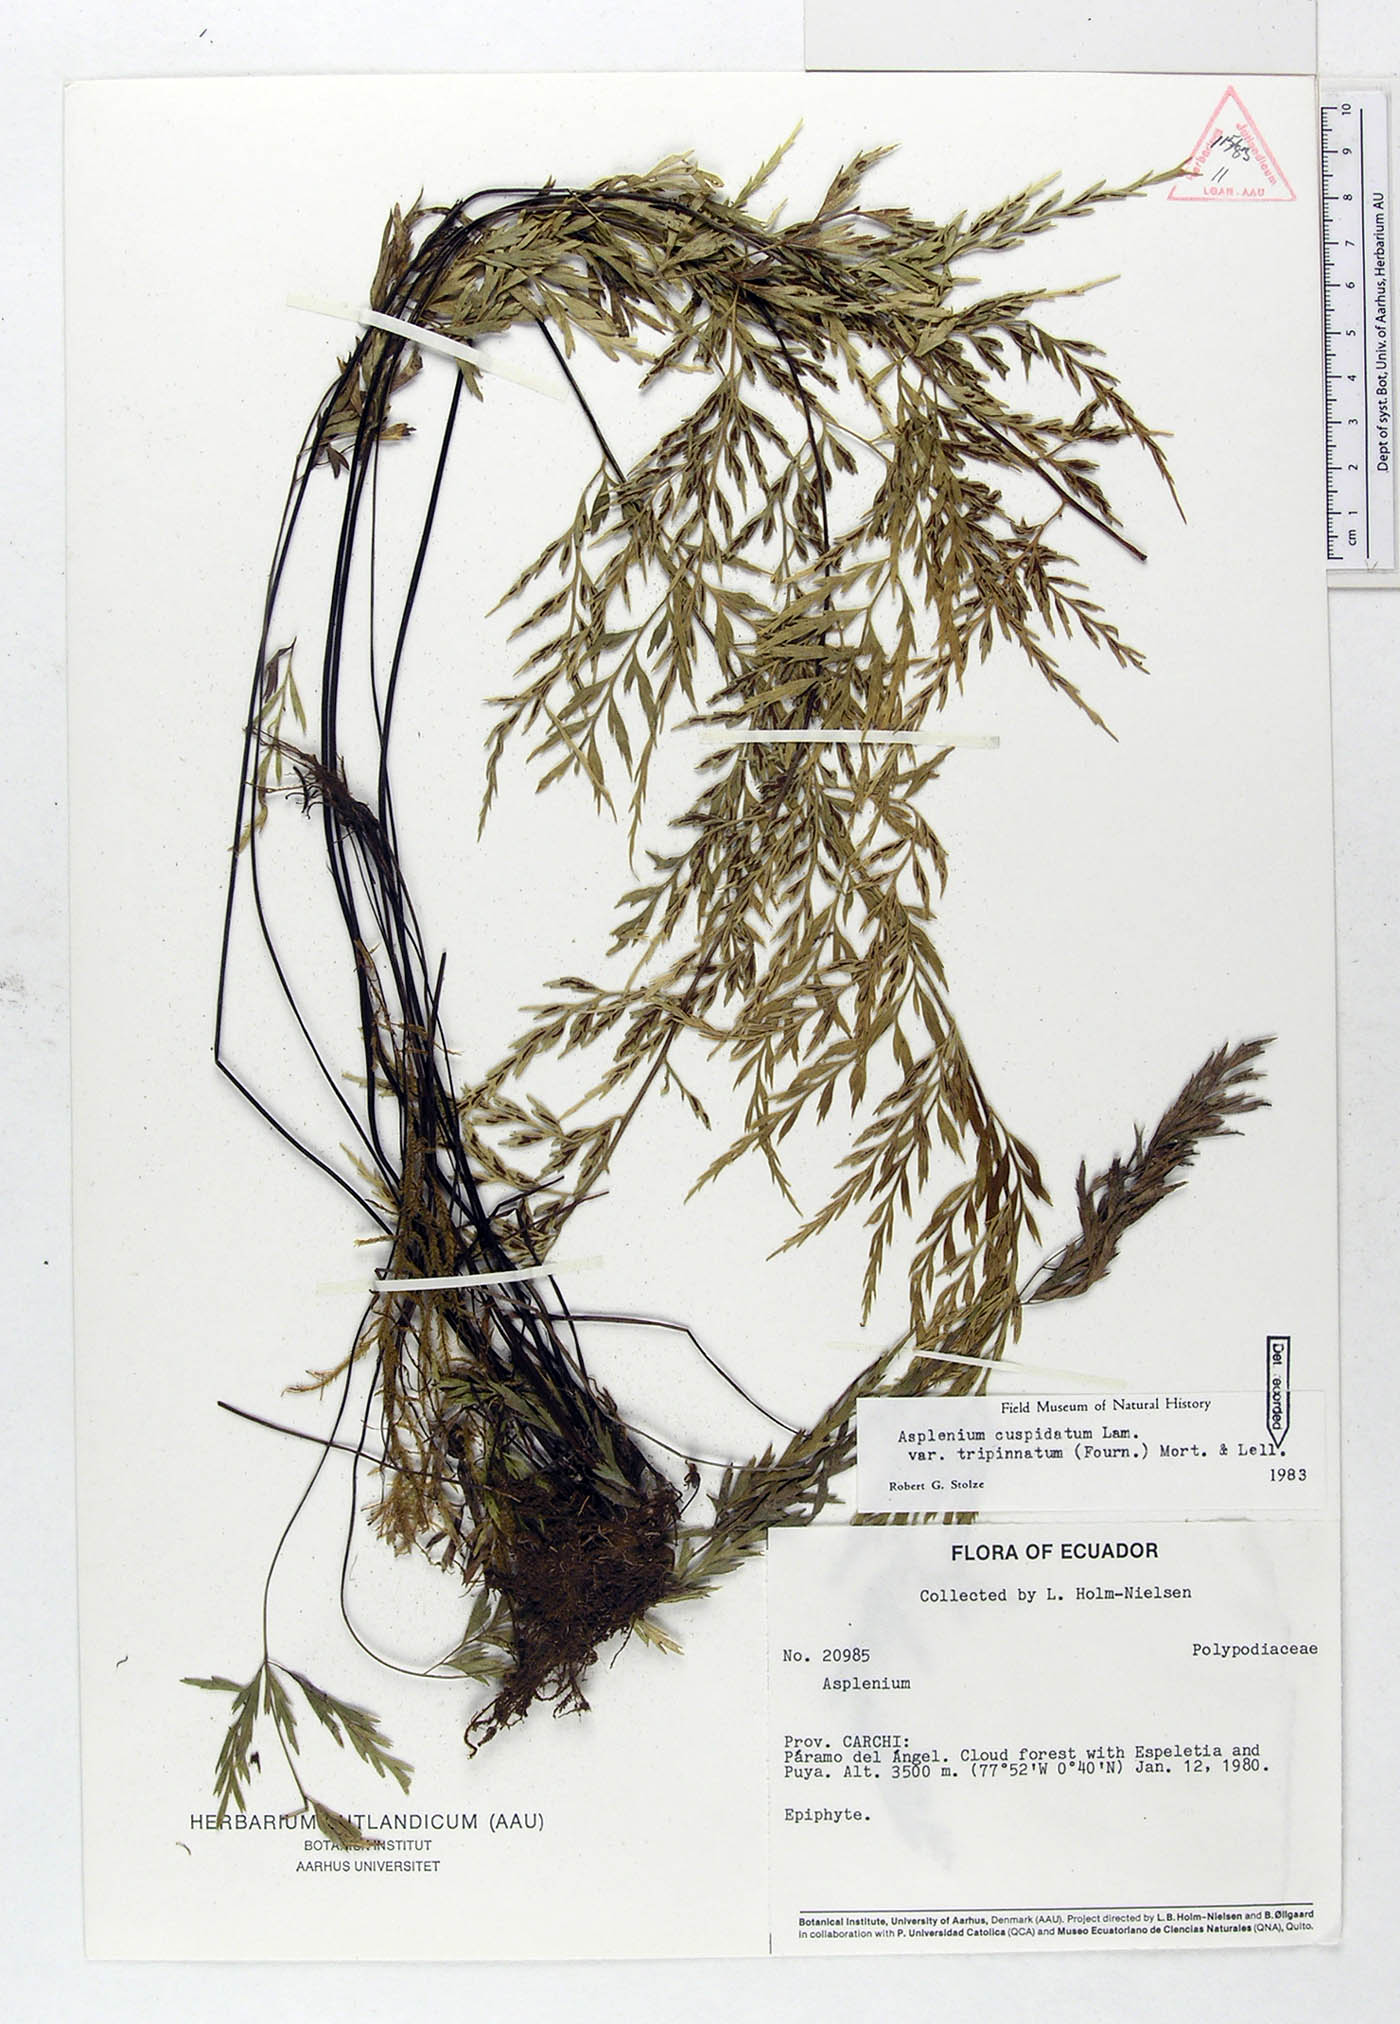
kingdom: Plantae
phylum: Tracheophyta
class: Polypodiopsida
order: Polypodiales
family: Aspleniaceae
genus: Asplenium
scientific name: Asplenium fragrans
